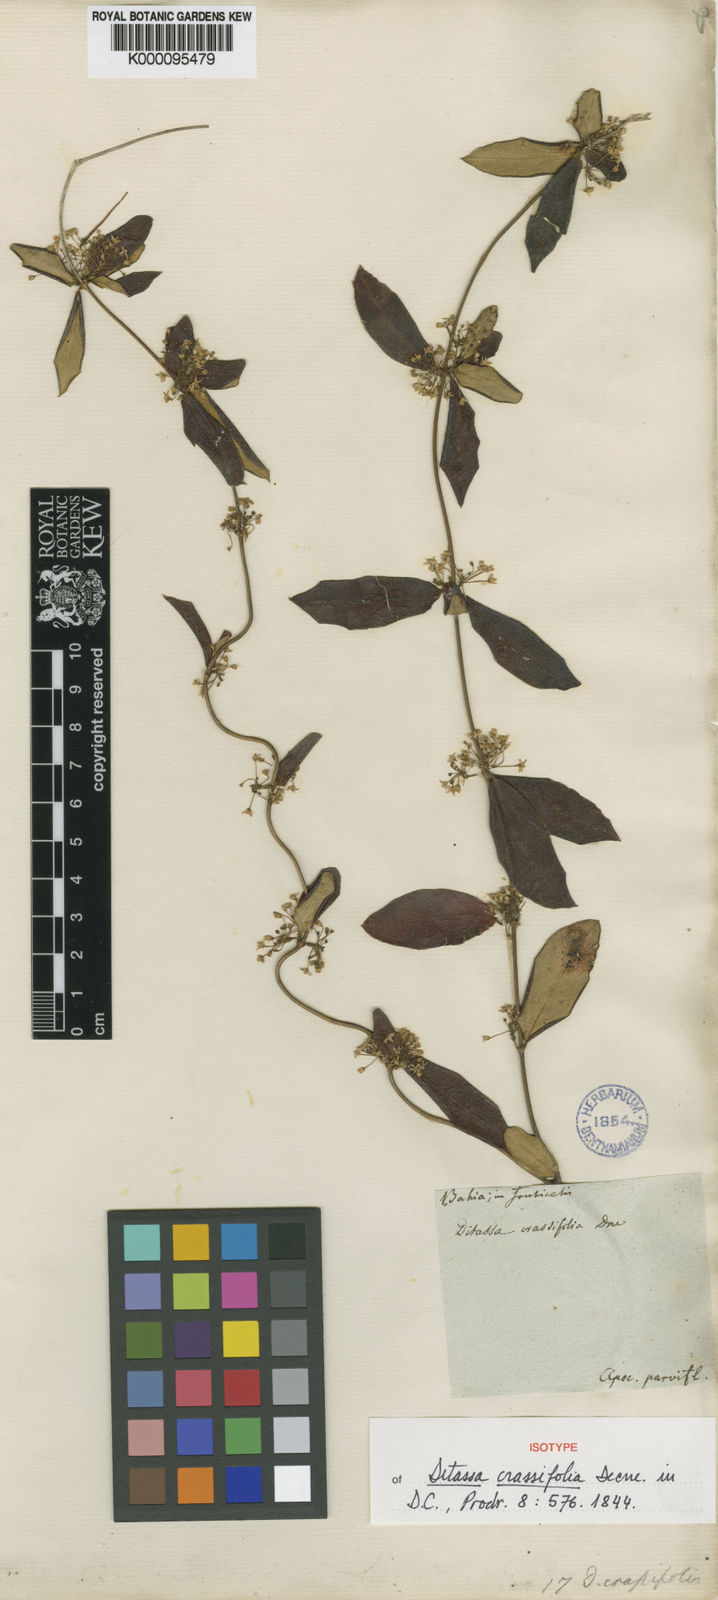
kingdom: Plantae
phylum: Tracheophyta
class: Magnoliopsida
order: Gentianales
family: Apocynaceae
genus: Ditassa
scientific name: Ditassa crassifolia
